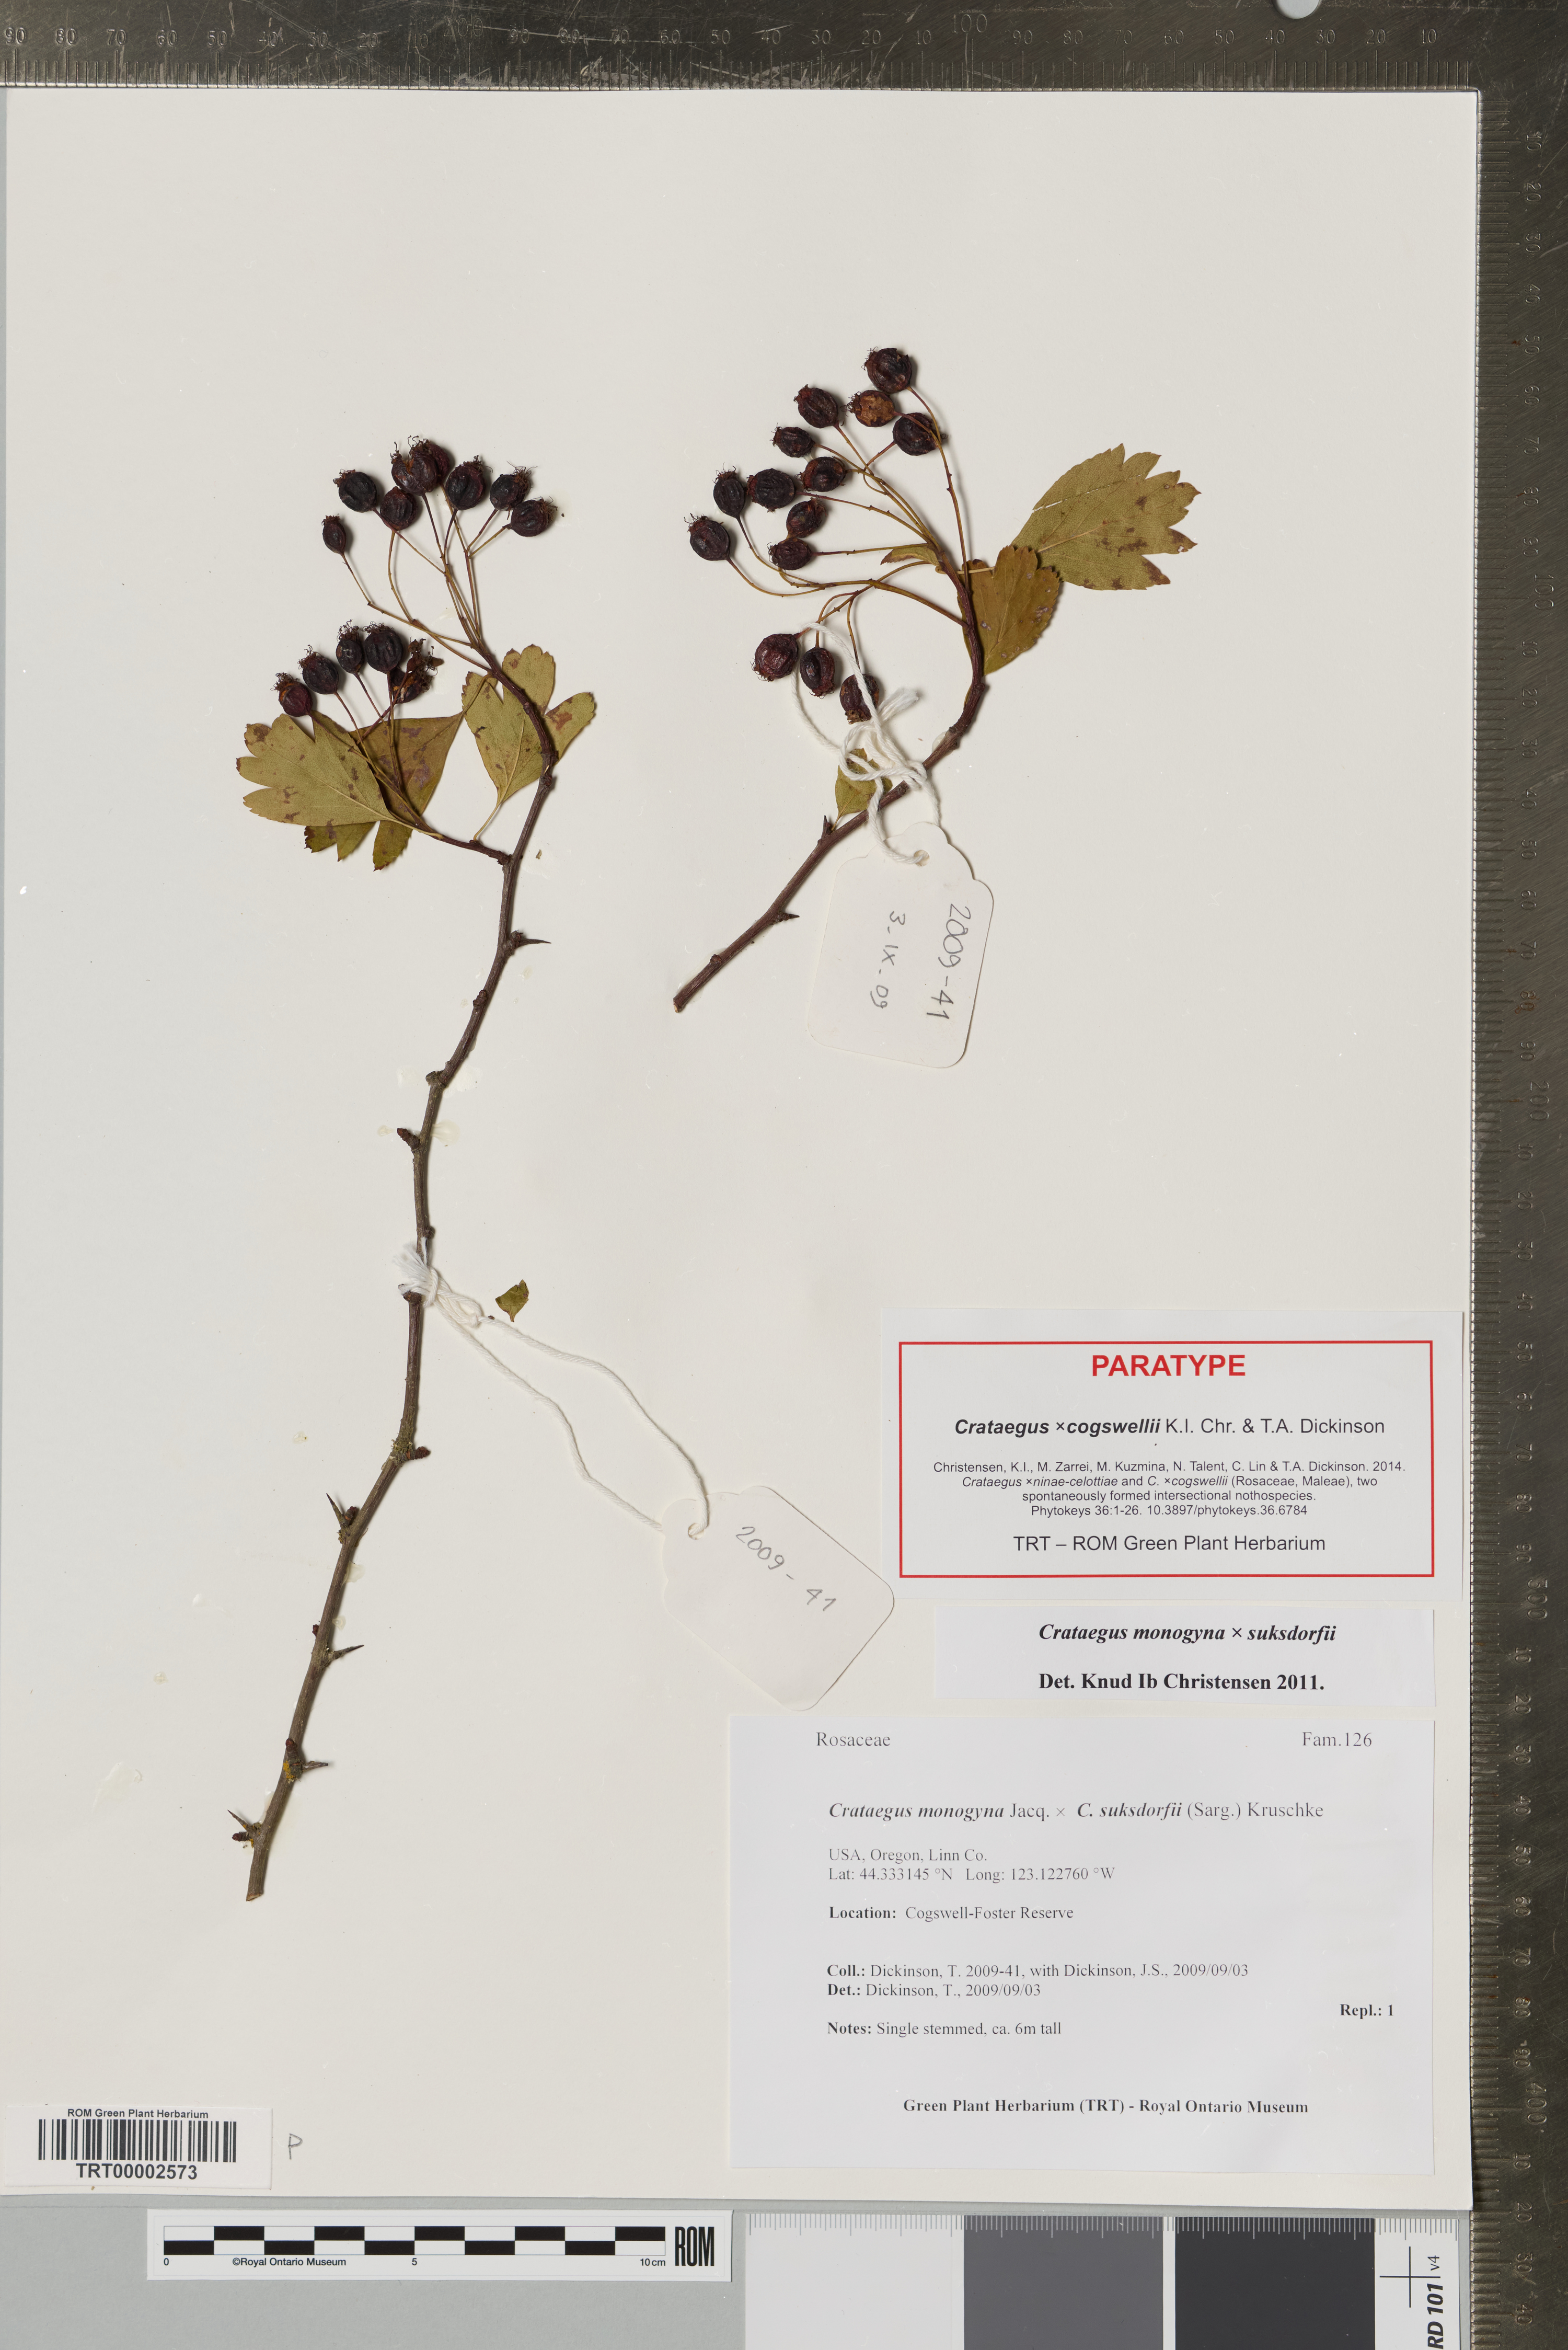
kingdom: Plantae
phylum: Tracheophyta
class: Magnoliopsida
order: Rosales
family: Rosaceae
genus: Crataegus
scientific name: Crataegus
